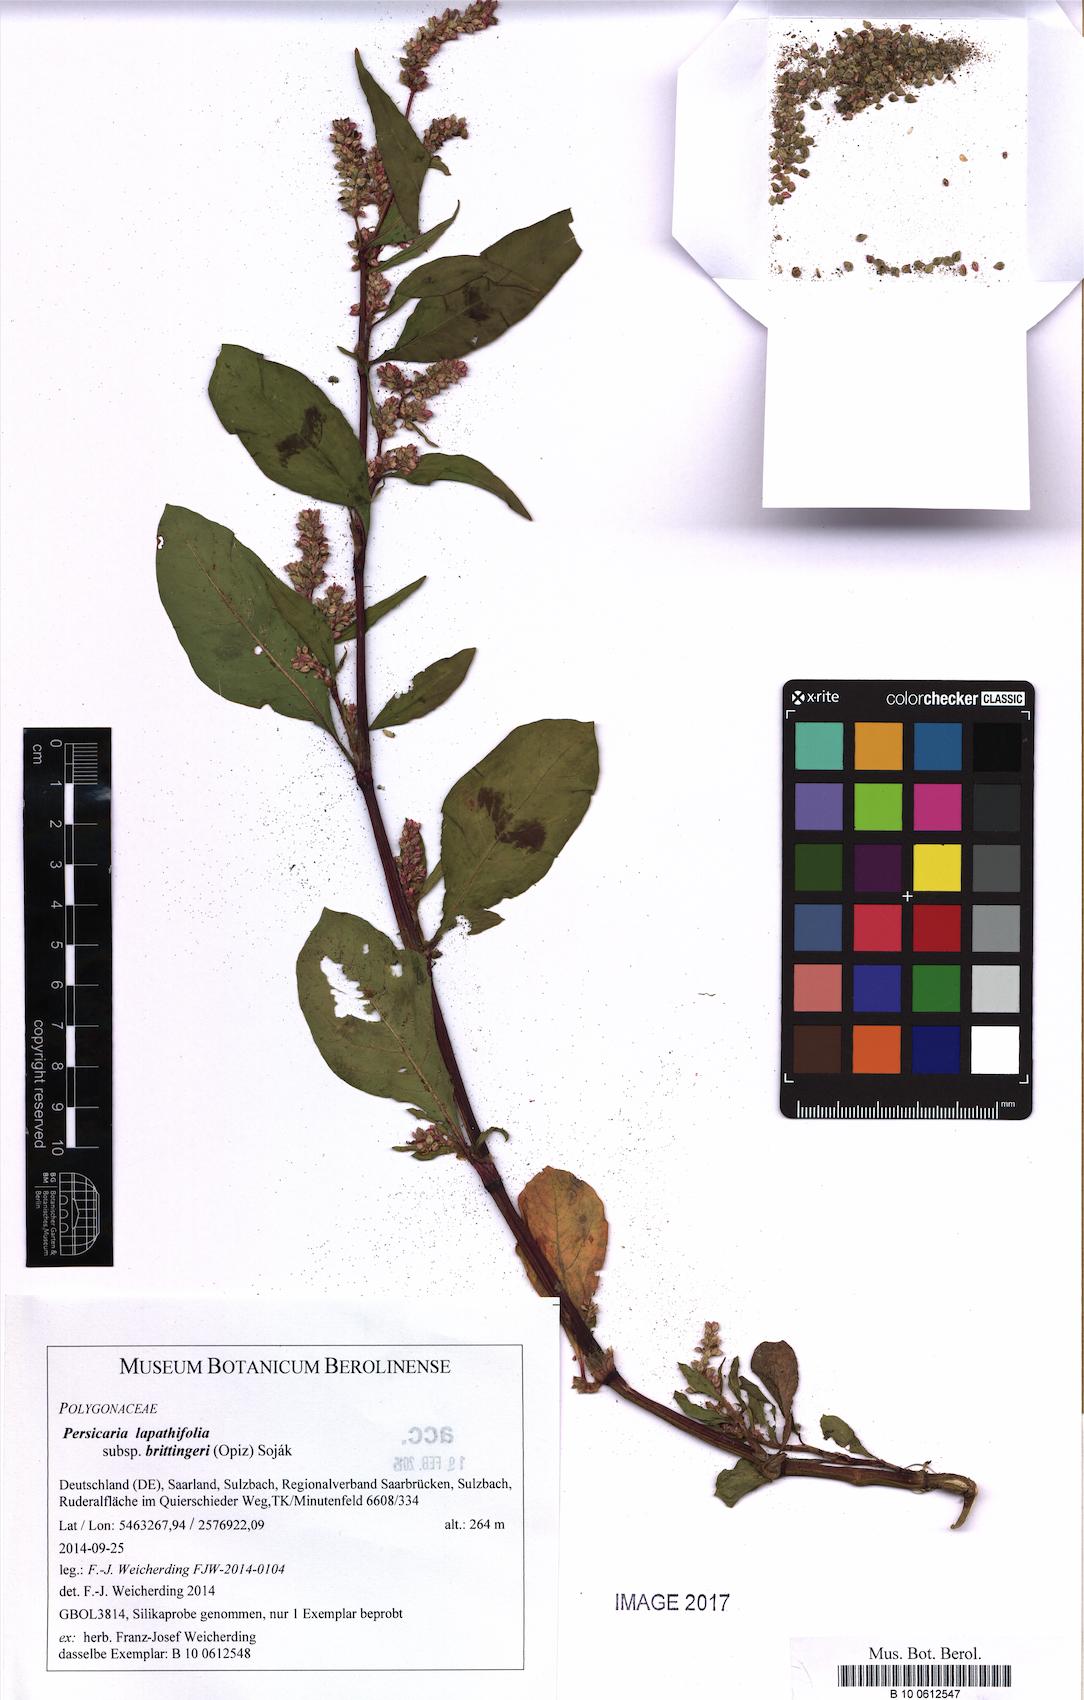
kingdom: Plantae
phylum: Tracheophyta
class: Magnoliopsida
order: Caryophyllales
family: Polygonaceae
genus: Persicaria
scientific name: Persicaria lapathifolia
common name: Curlytop knotweed
